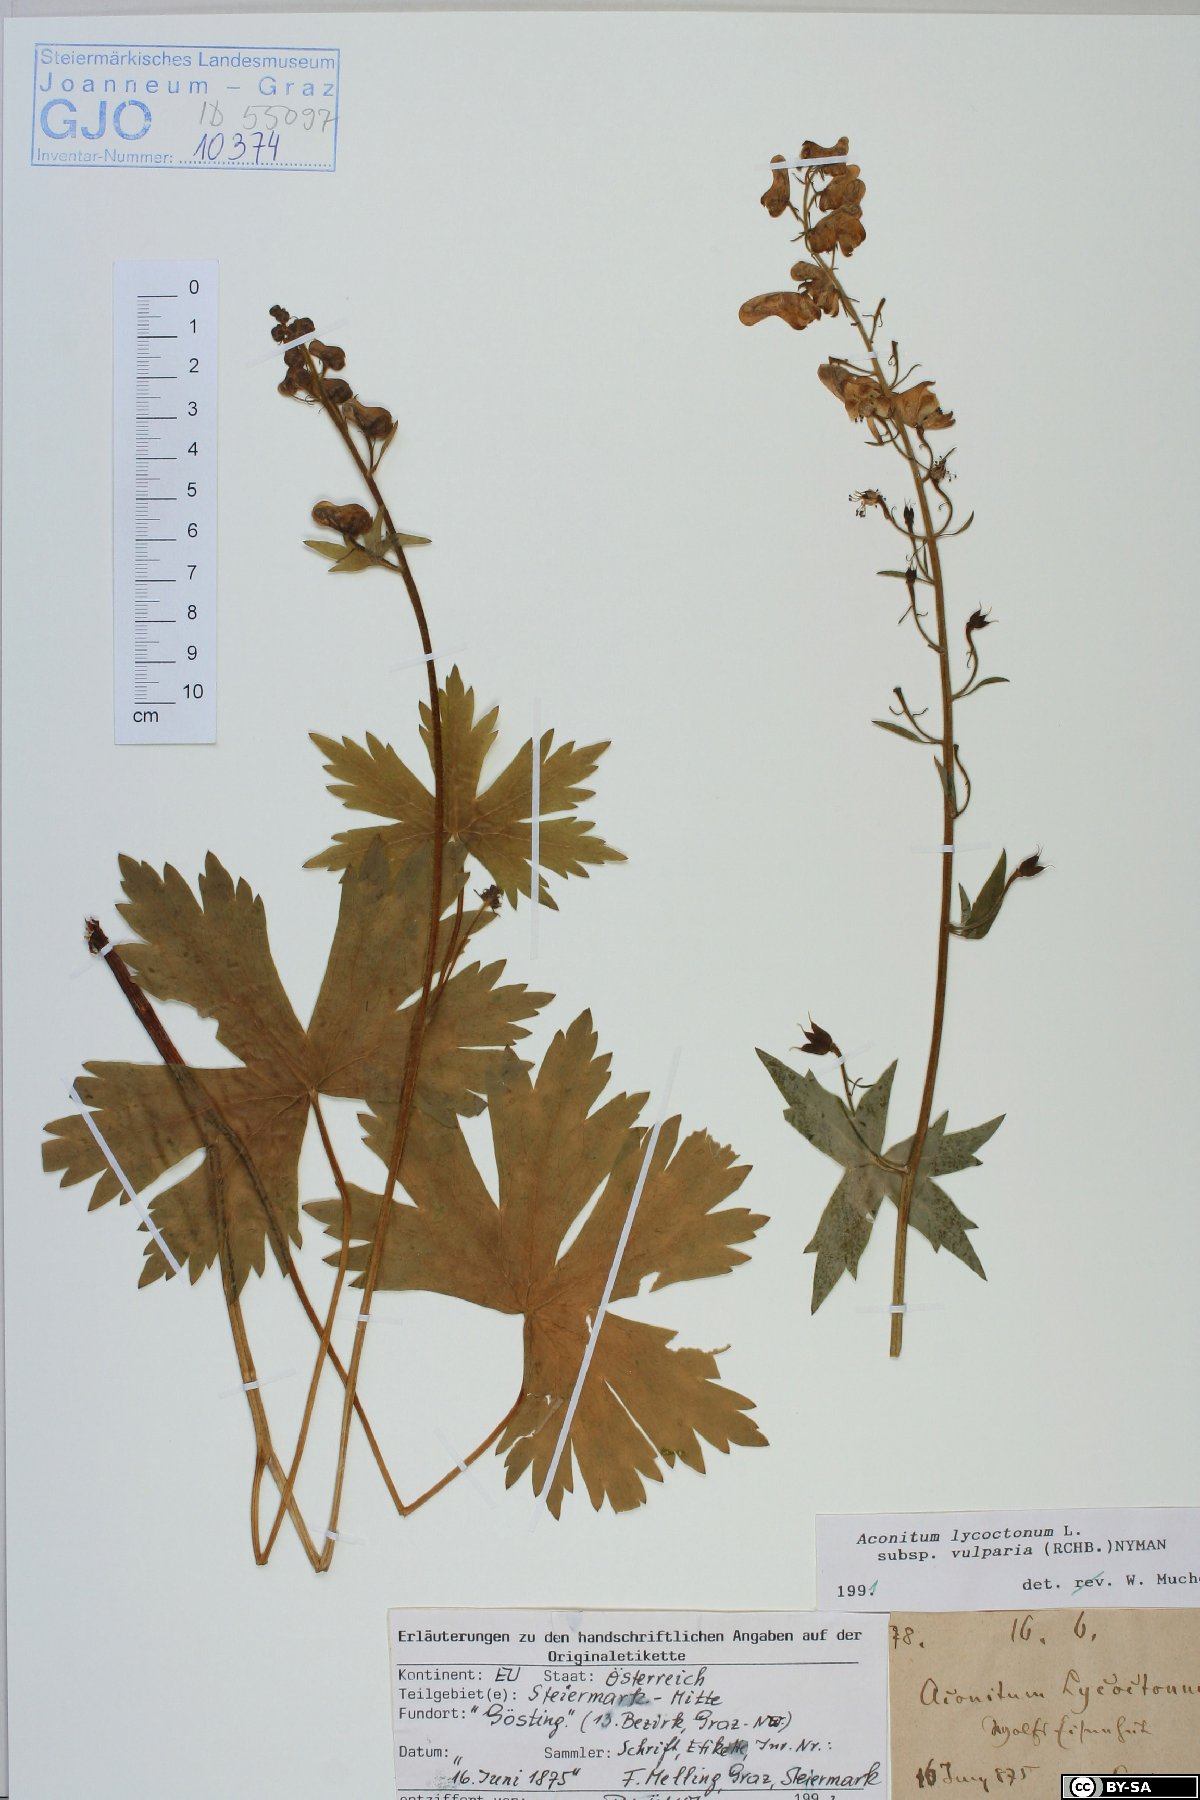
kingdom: Plantae
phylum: Tracheophyta
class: Magnoliopsida
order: Ranunculales
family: Ranunculaceae
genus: Aconitum
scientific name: Aconitum lycoctonum
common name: Wolf's-bane
